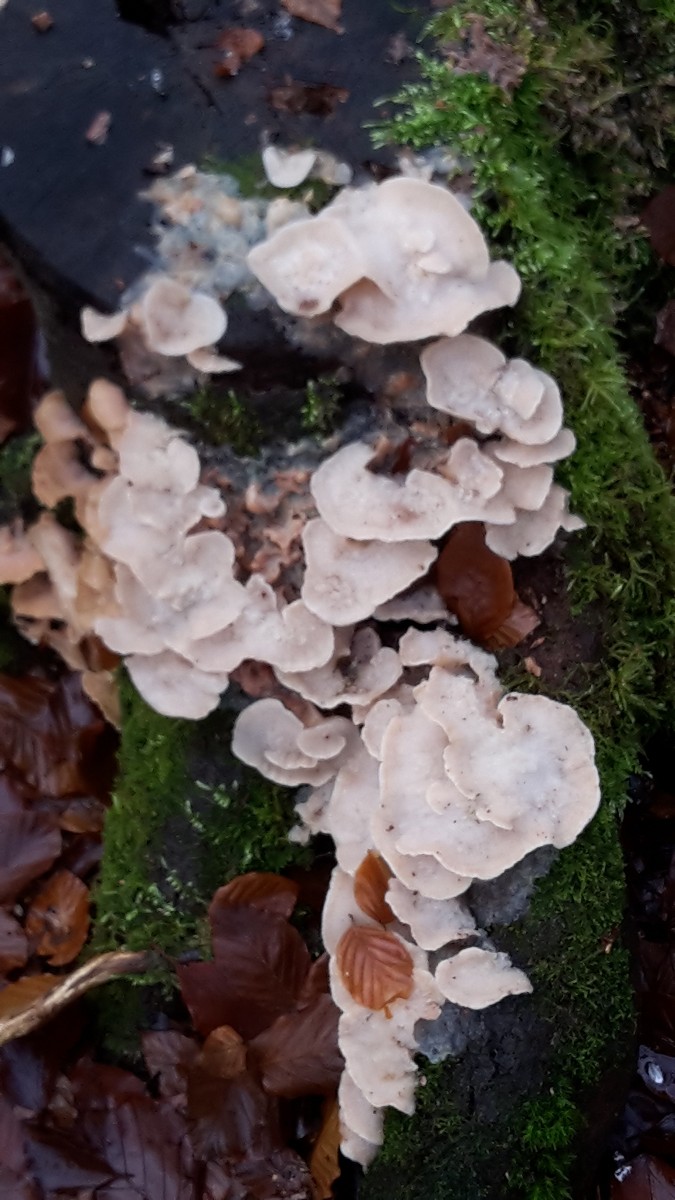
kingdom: Fungi
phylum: Basidiomycota
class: Agaricomycetes
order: Polyporales
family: Meruliaceae
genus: Phlebia
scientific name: Phlebia tremellosa
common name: bævrende åresvamp
